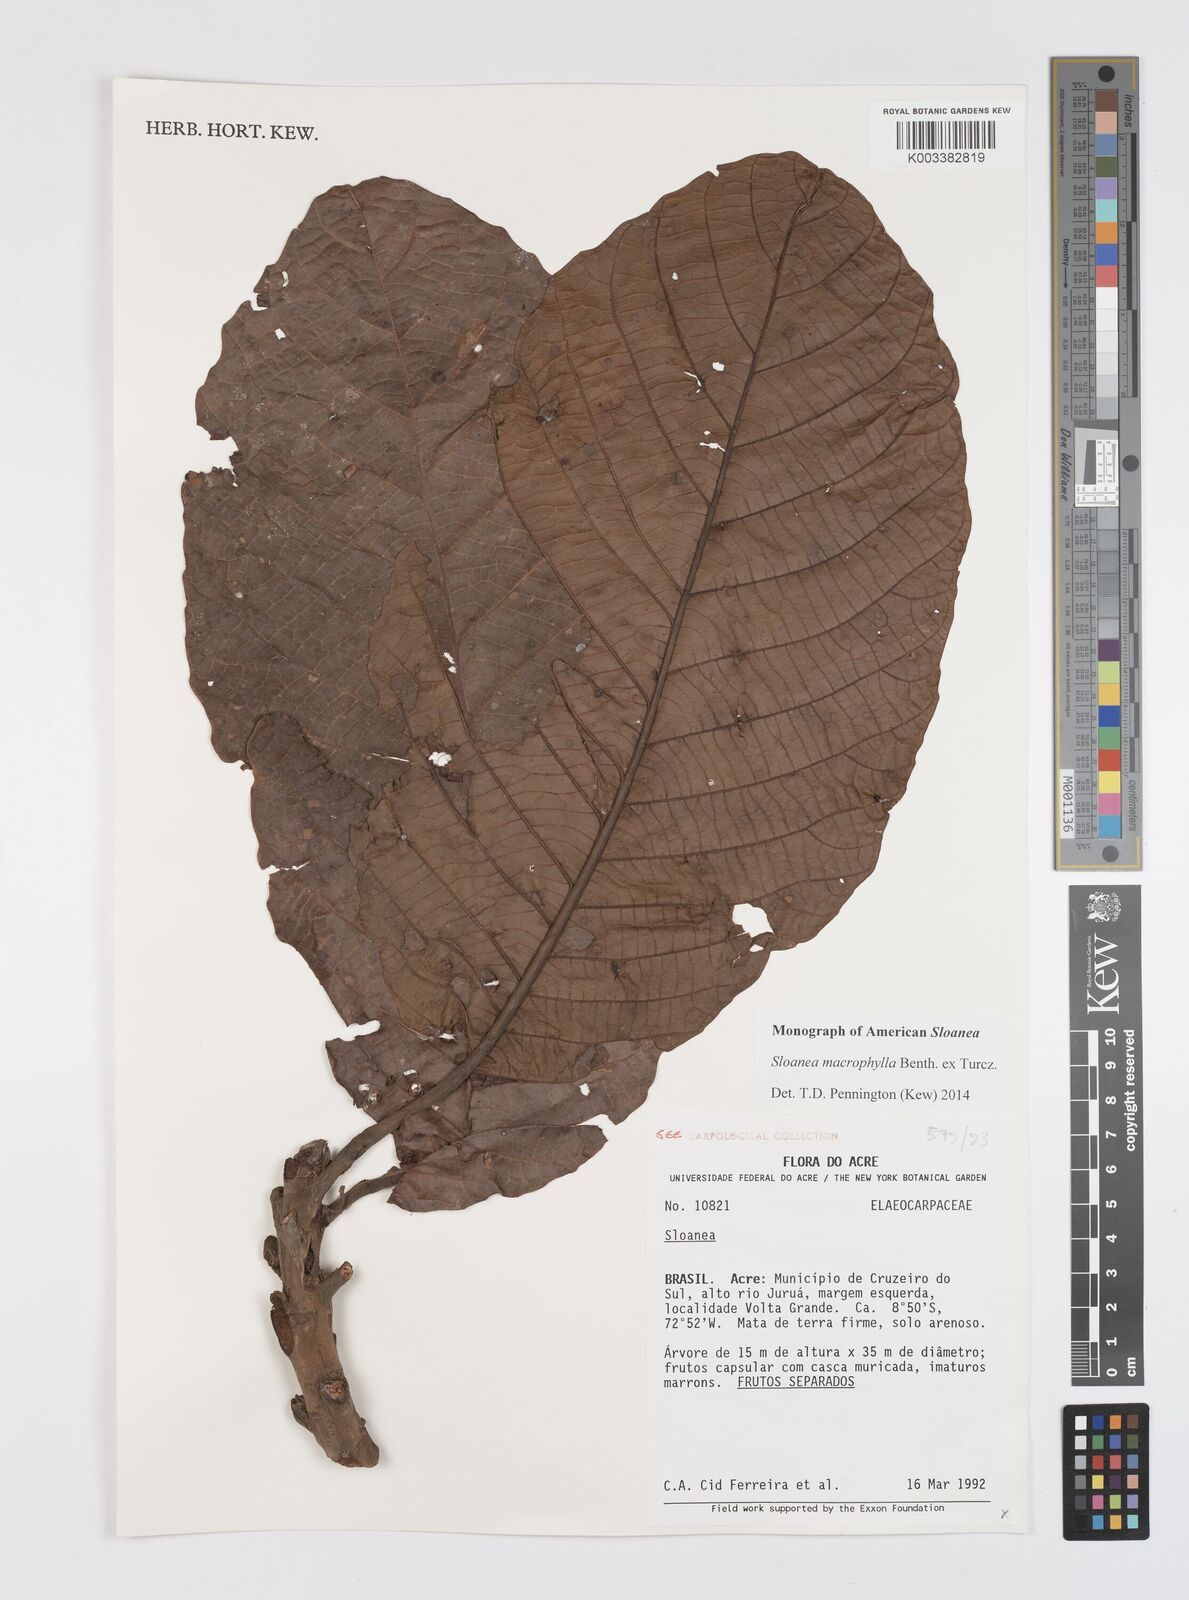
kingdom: Plantae
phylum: Tracheophyta
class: Magnoliopsida
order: Oxalidales
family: Elaeocarpaceae
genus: Sloanea
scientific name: Sloanea macrophylla
